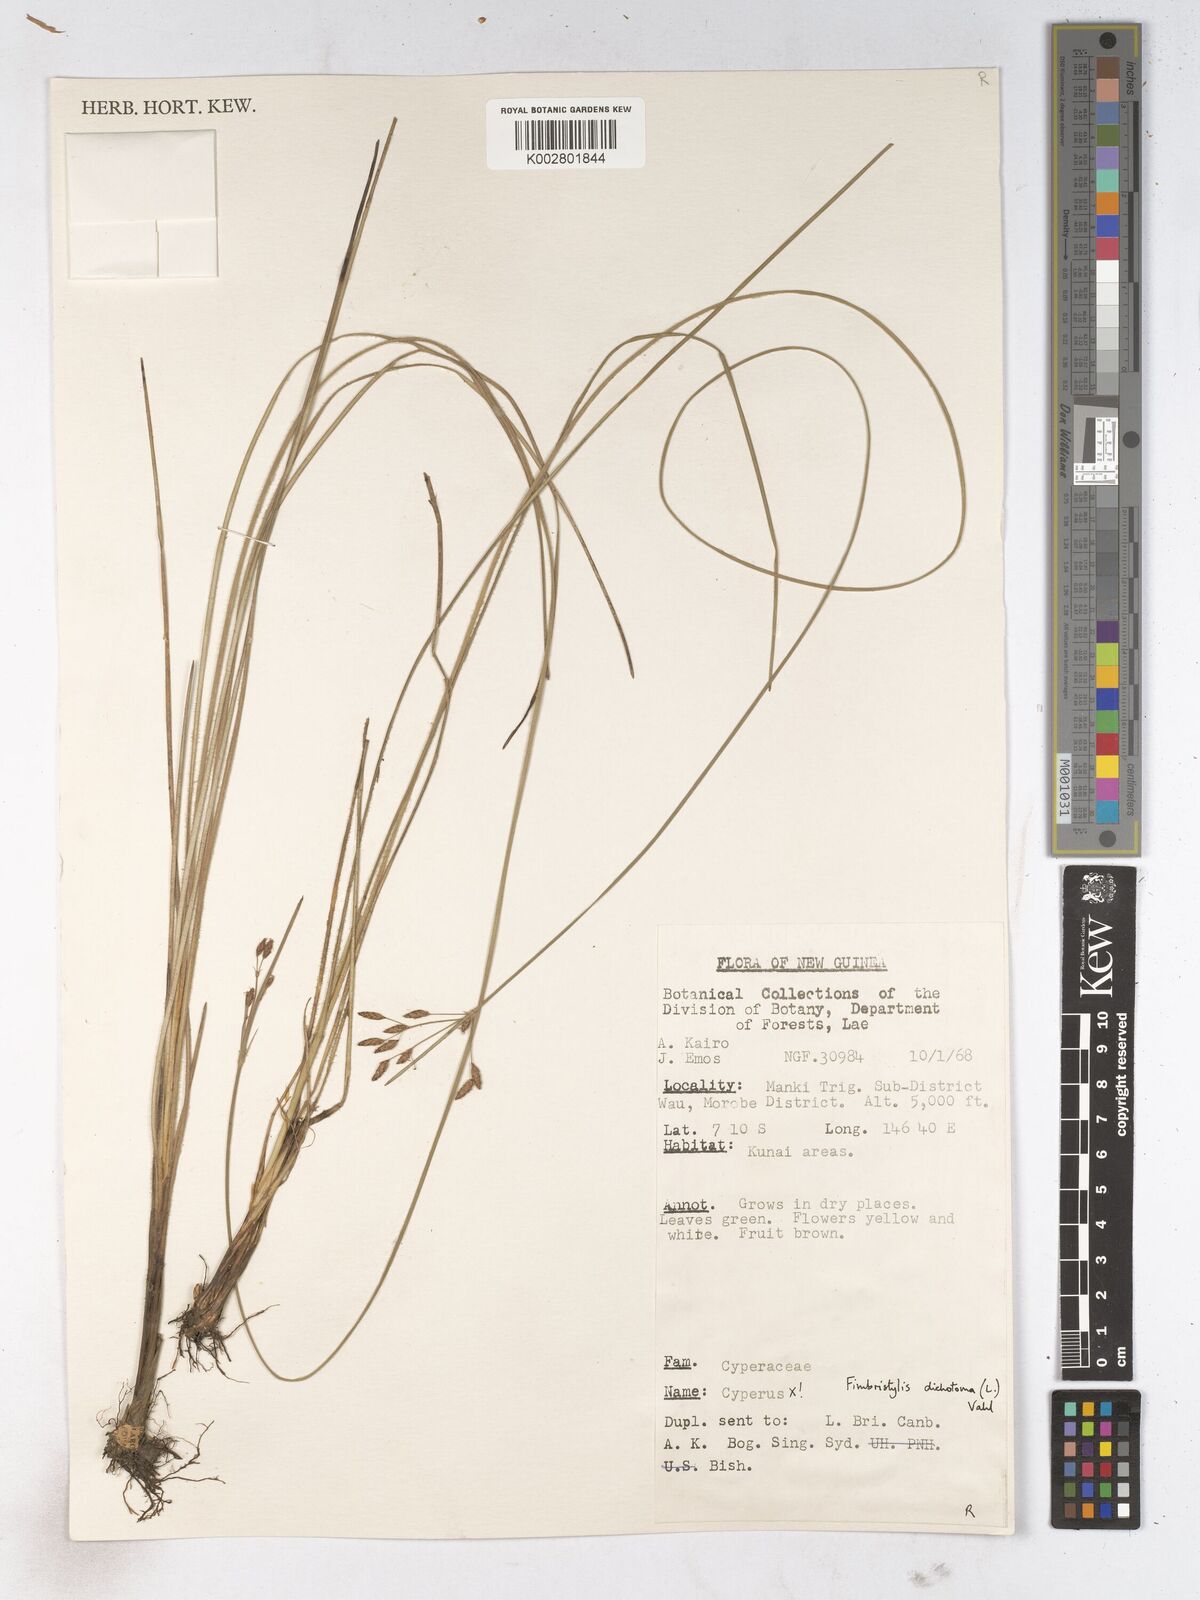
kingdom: Plantae
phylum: Tracheophyta
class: Liliopsida
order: Poales
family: Cyperaceae
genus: Fimbristylis
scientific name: Fimbristylis dichotoma
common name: Forked fimbry
